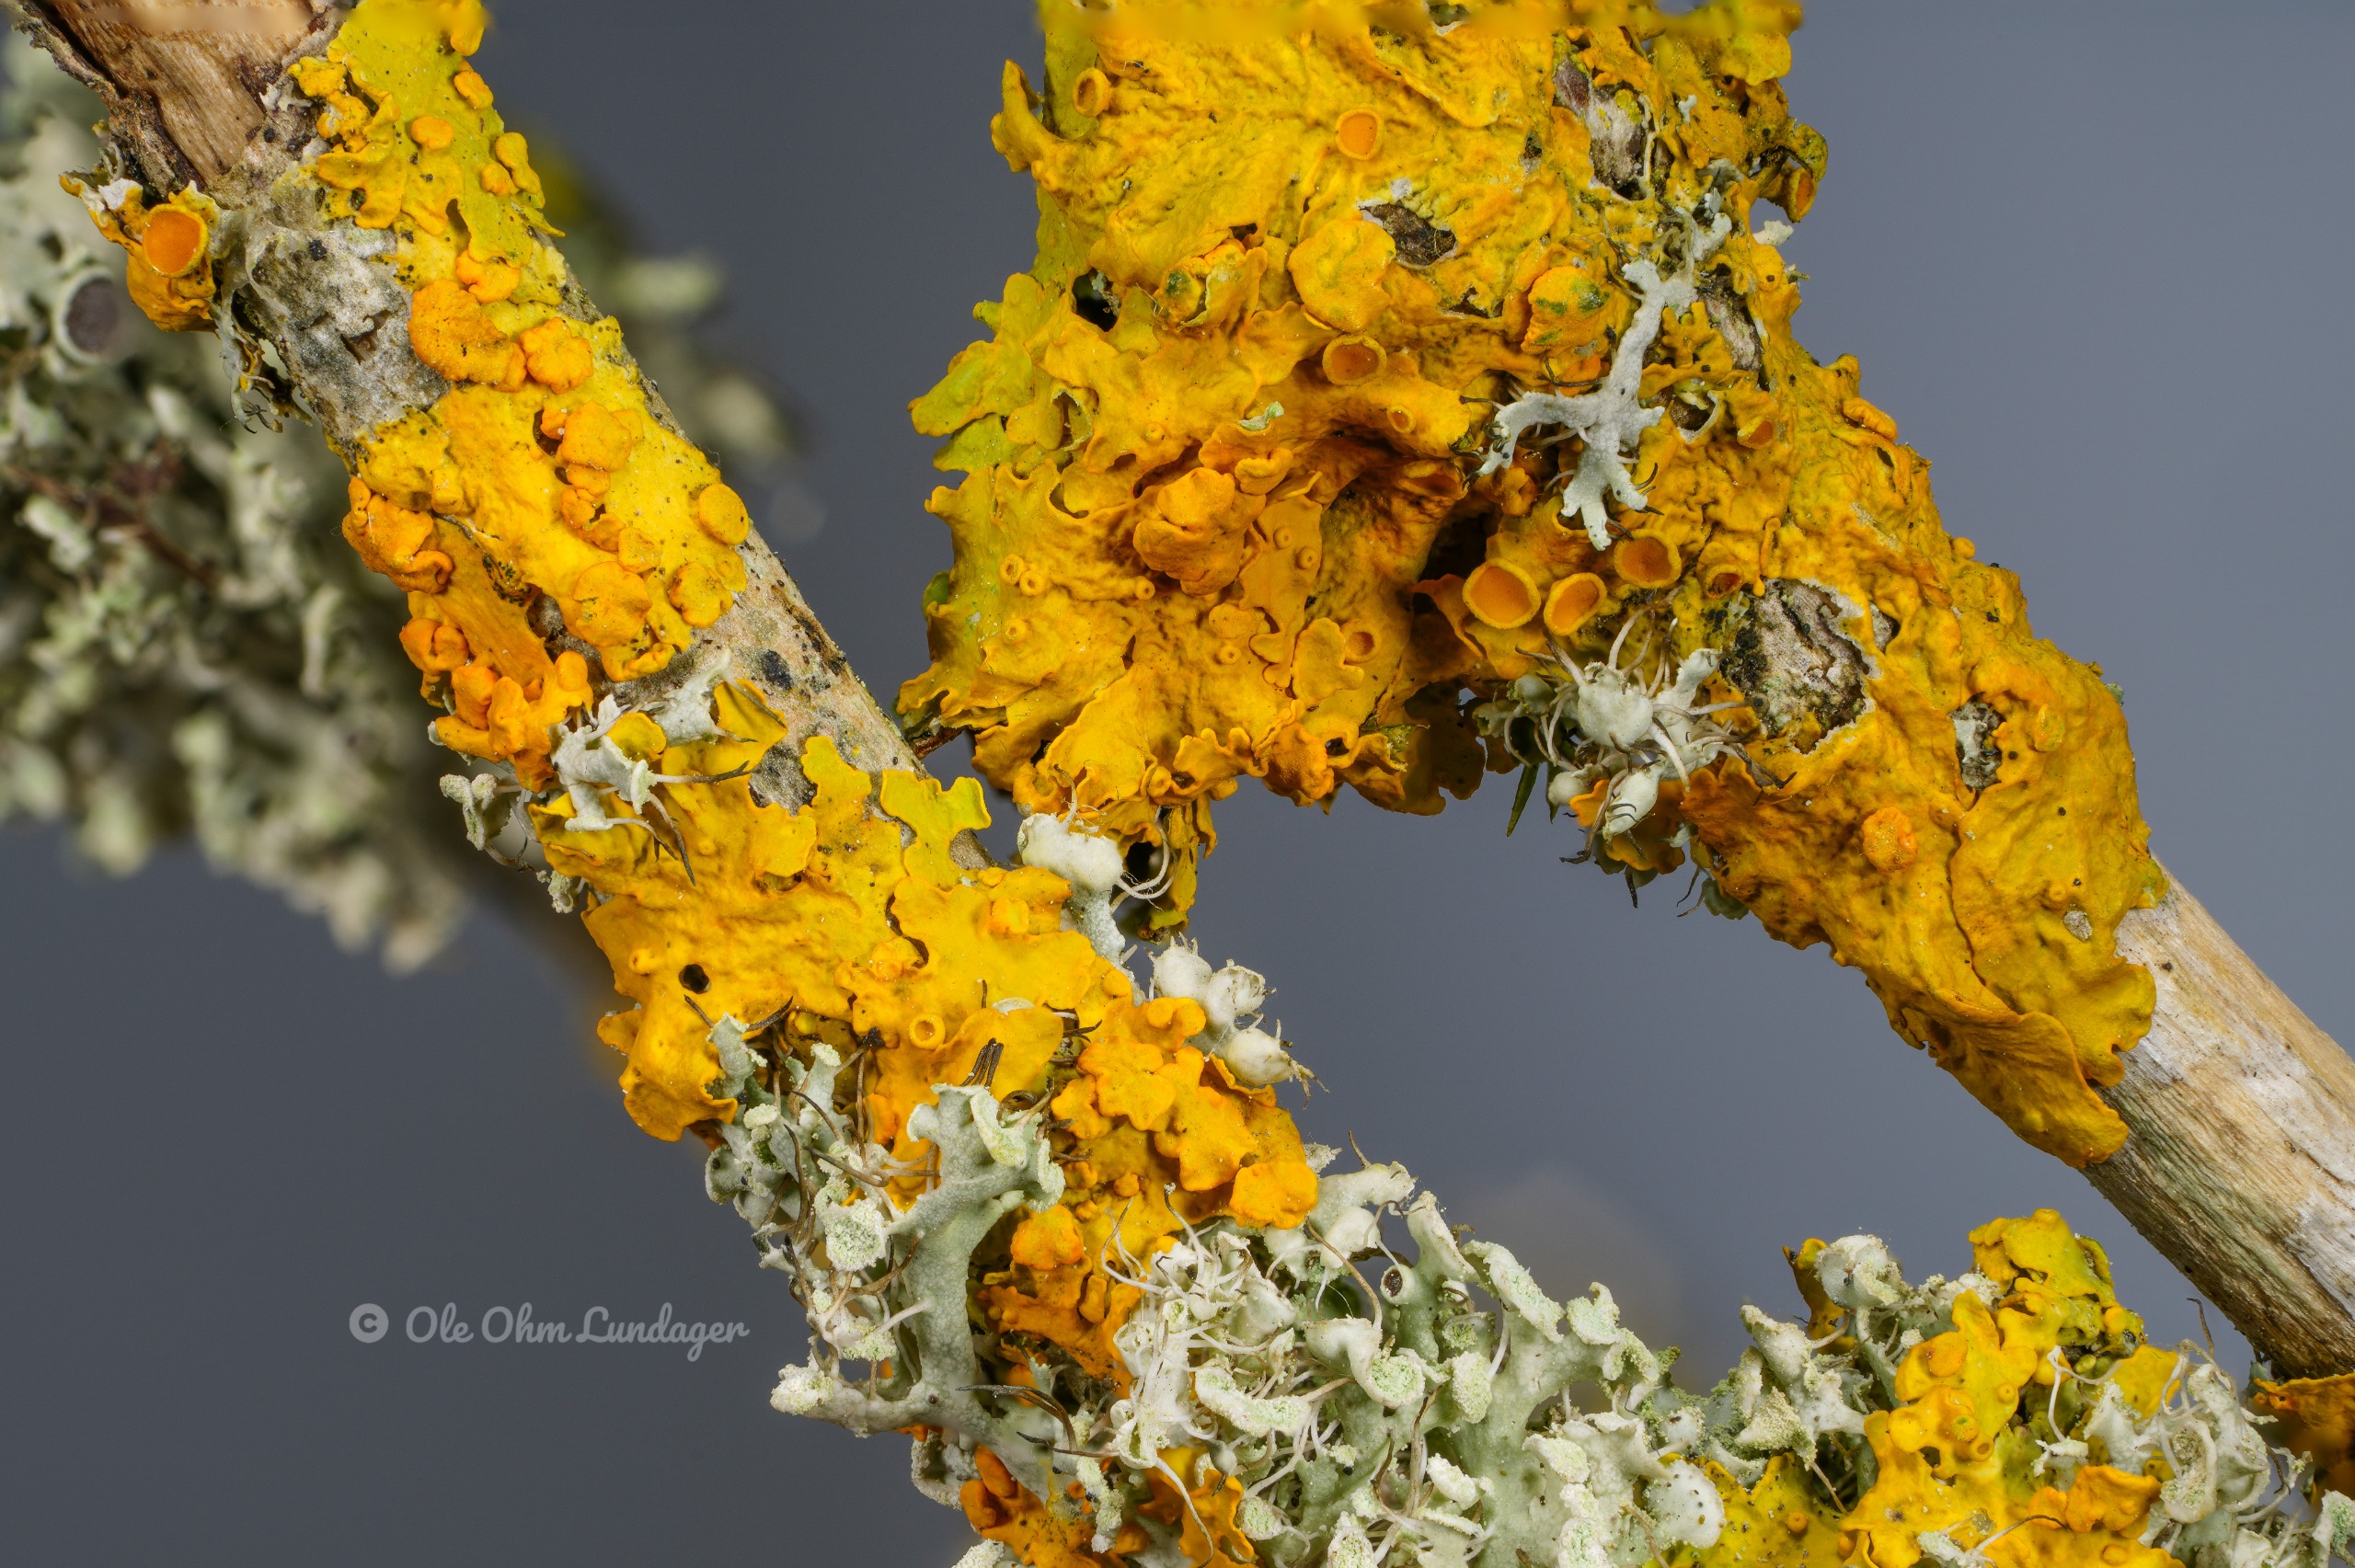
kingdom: Fungi
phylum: Ascomycota
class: Lecanoromycetes
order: Teloschistales
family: Teloschistaceae
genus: Xanthoria
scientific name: Xanthoria parietina
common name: Almindelig væggelav
